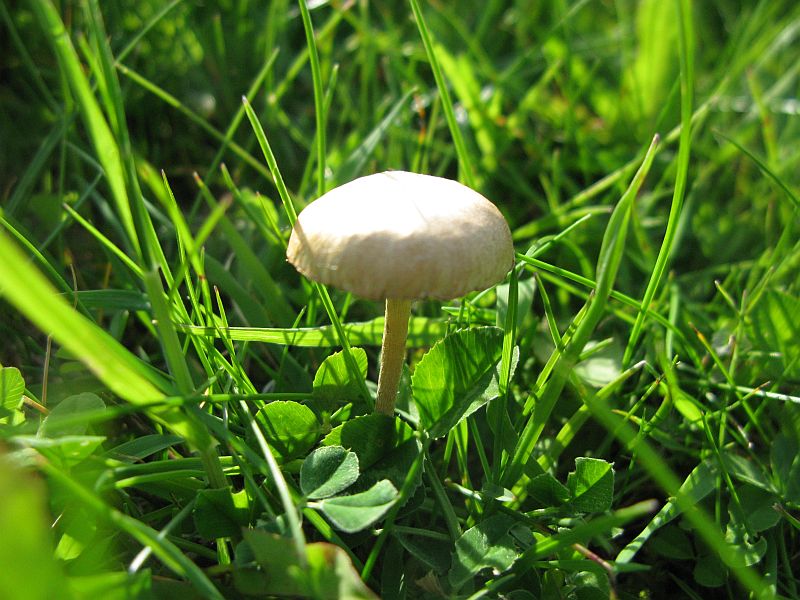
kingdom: Fungi
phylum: Basidiomycota
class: Agaricomycetes
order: Agaricales
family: Strophariaceae
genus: Agrocybe
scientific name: Agrocybe pediades
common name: almindelig agerhat
